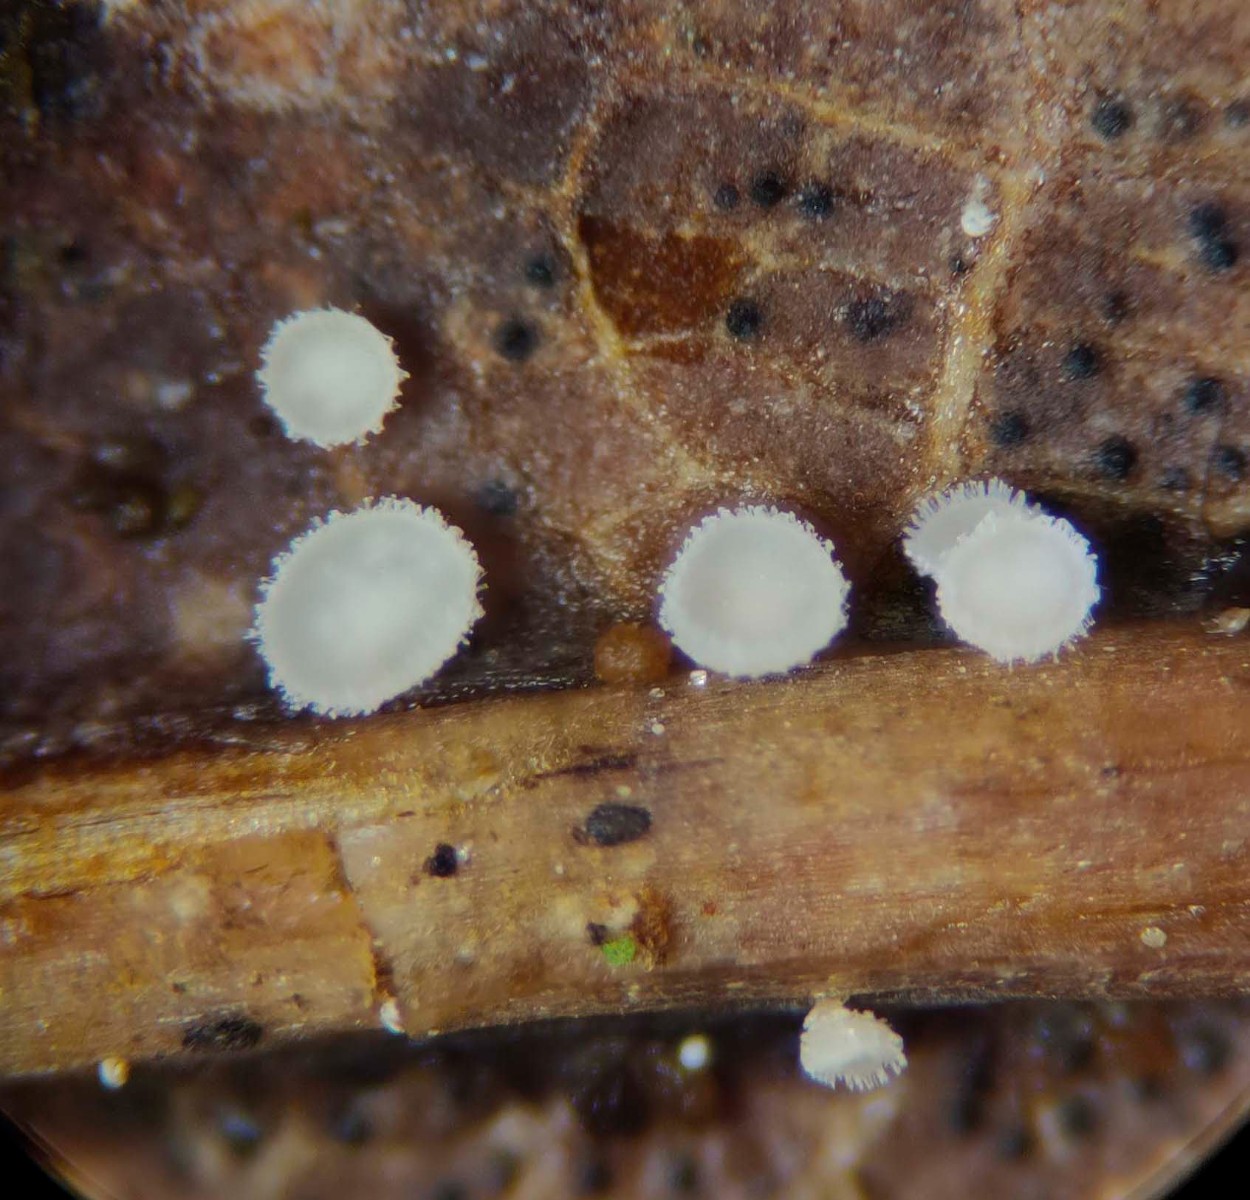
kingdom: Fungi
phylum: Ascomycota
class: Leotiomycetes
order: Helotiales
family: Lachnaceae
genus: Lachnum
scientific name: Lachnum rhytismatis
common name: blad-frynseskive
